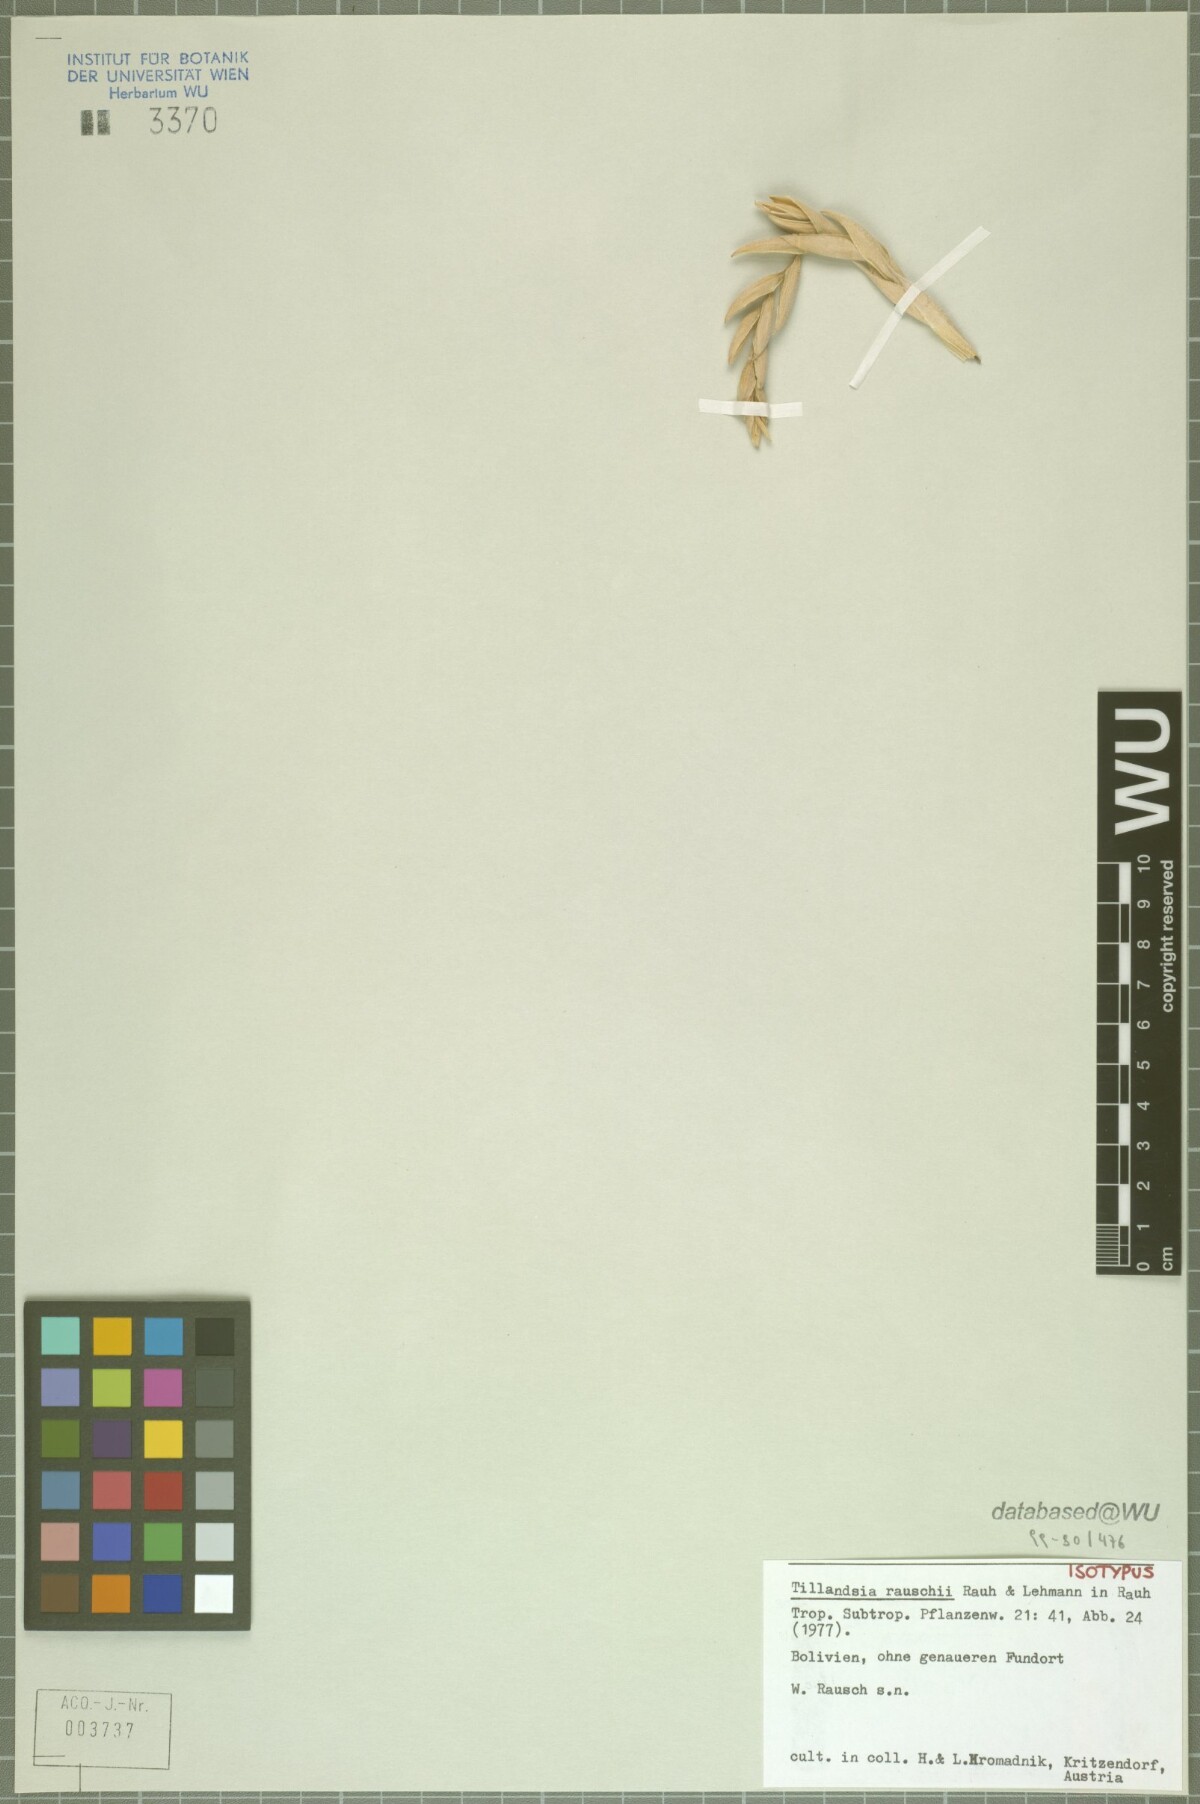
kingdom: Plantae
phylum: Tracheophyta
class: Liliopsida
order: Poales
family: Bromeliaceae
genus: Tillandsia
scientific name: Tillandsia rauschii
